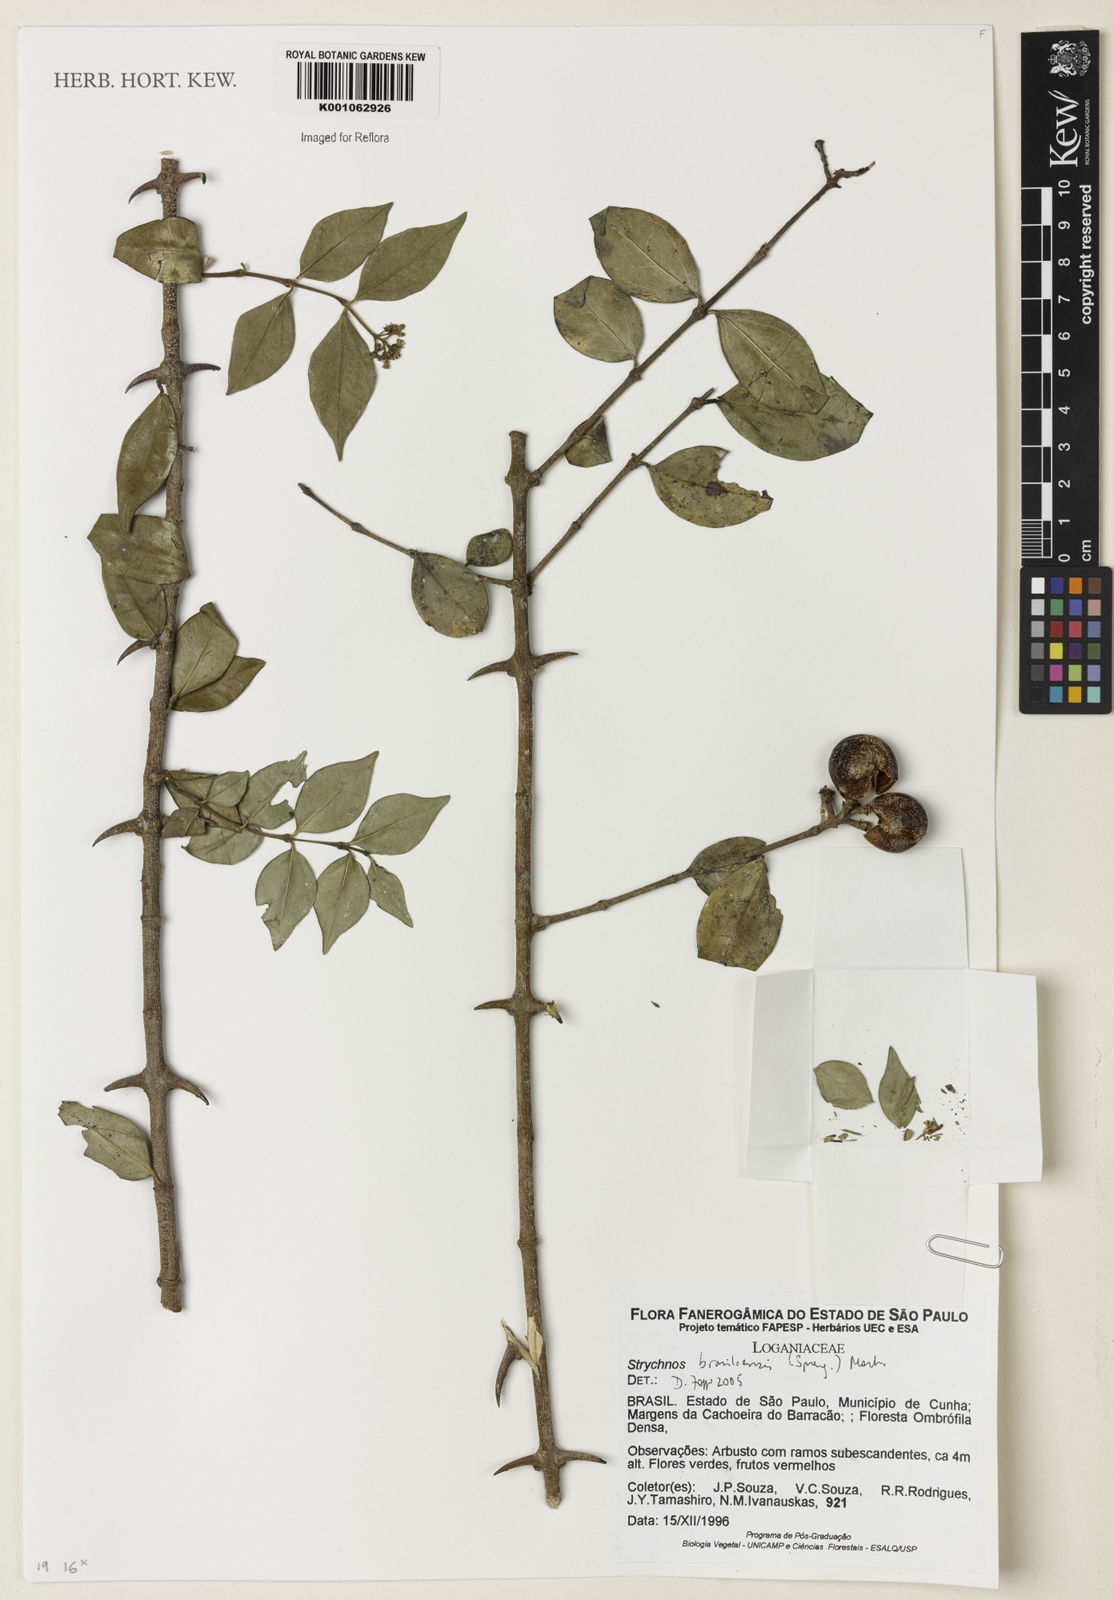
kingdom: Plantae
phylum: Tracheophyta
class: Magnoliopsida
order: Gentianales
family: Loganiaceae
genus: Strychnos
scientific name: Strychnos brasiliensis
